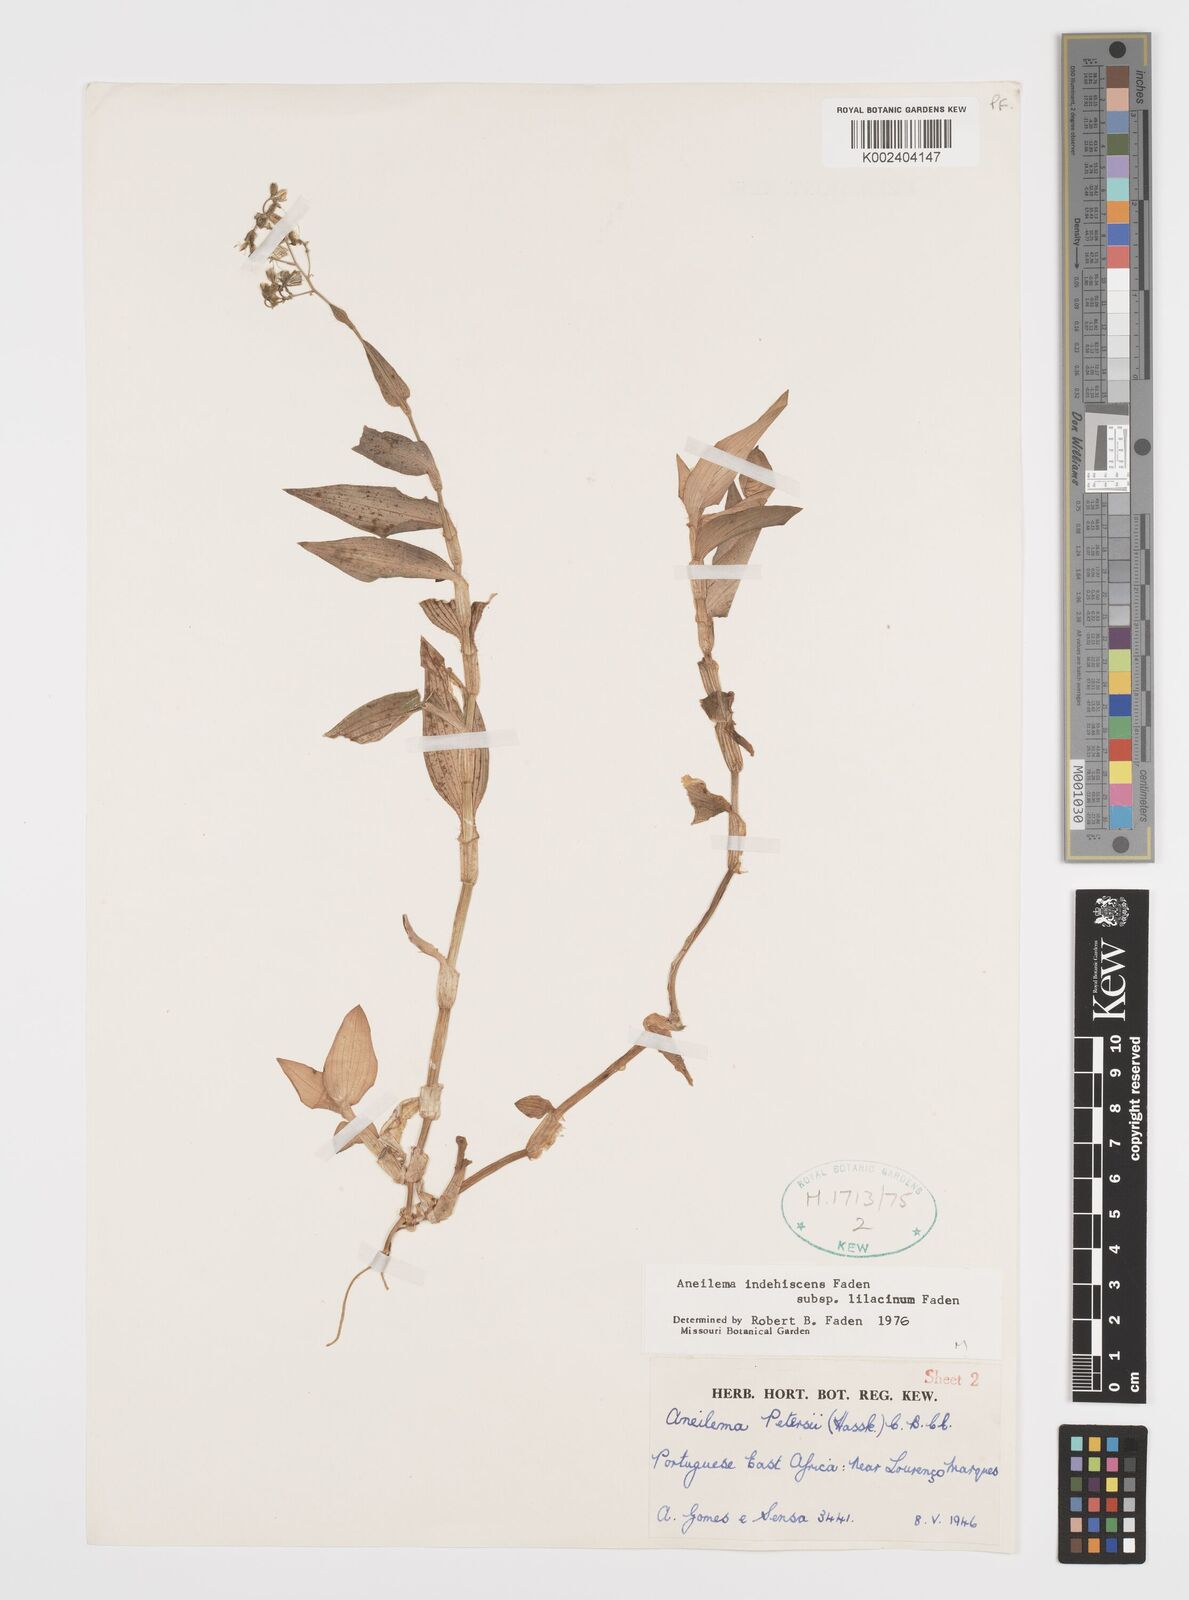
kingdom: Plantae
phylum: Tracheophyta
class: Liliopsida
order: Commelinales
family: Commelinaceae
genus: Aneilema
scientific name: Aneilema indehiscens
